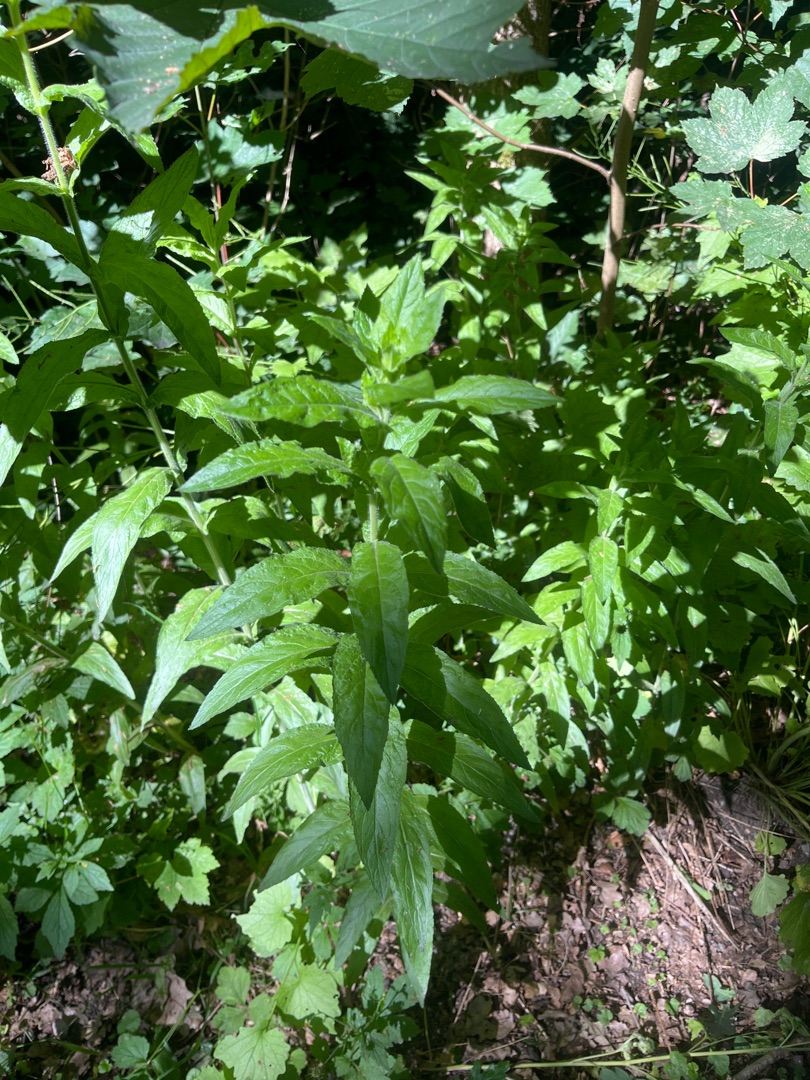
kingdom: Plantae
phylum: Tracheophyta
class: Magnoliopsida
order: Myrtales
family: Onagraceae
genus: Epilobium
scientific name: Epilobium hirsutum
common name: Lådden dueurt
